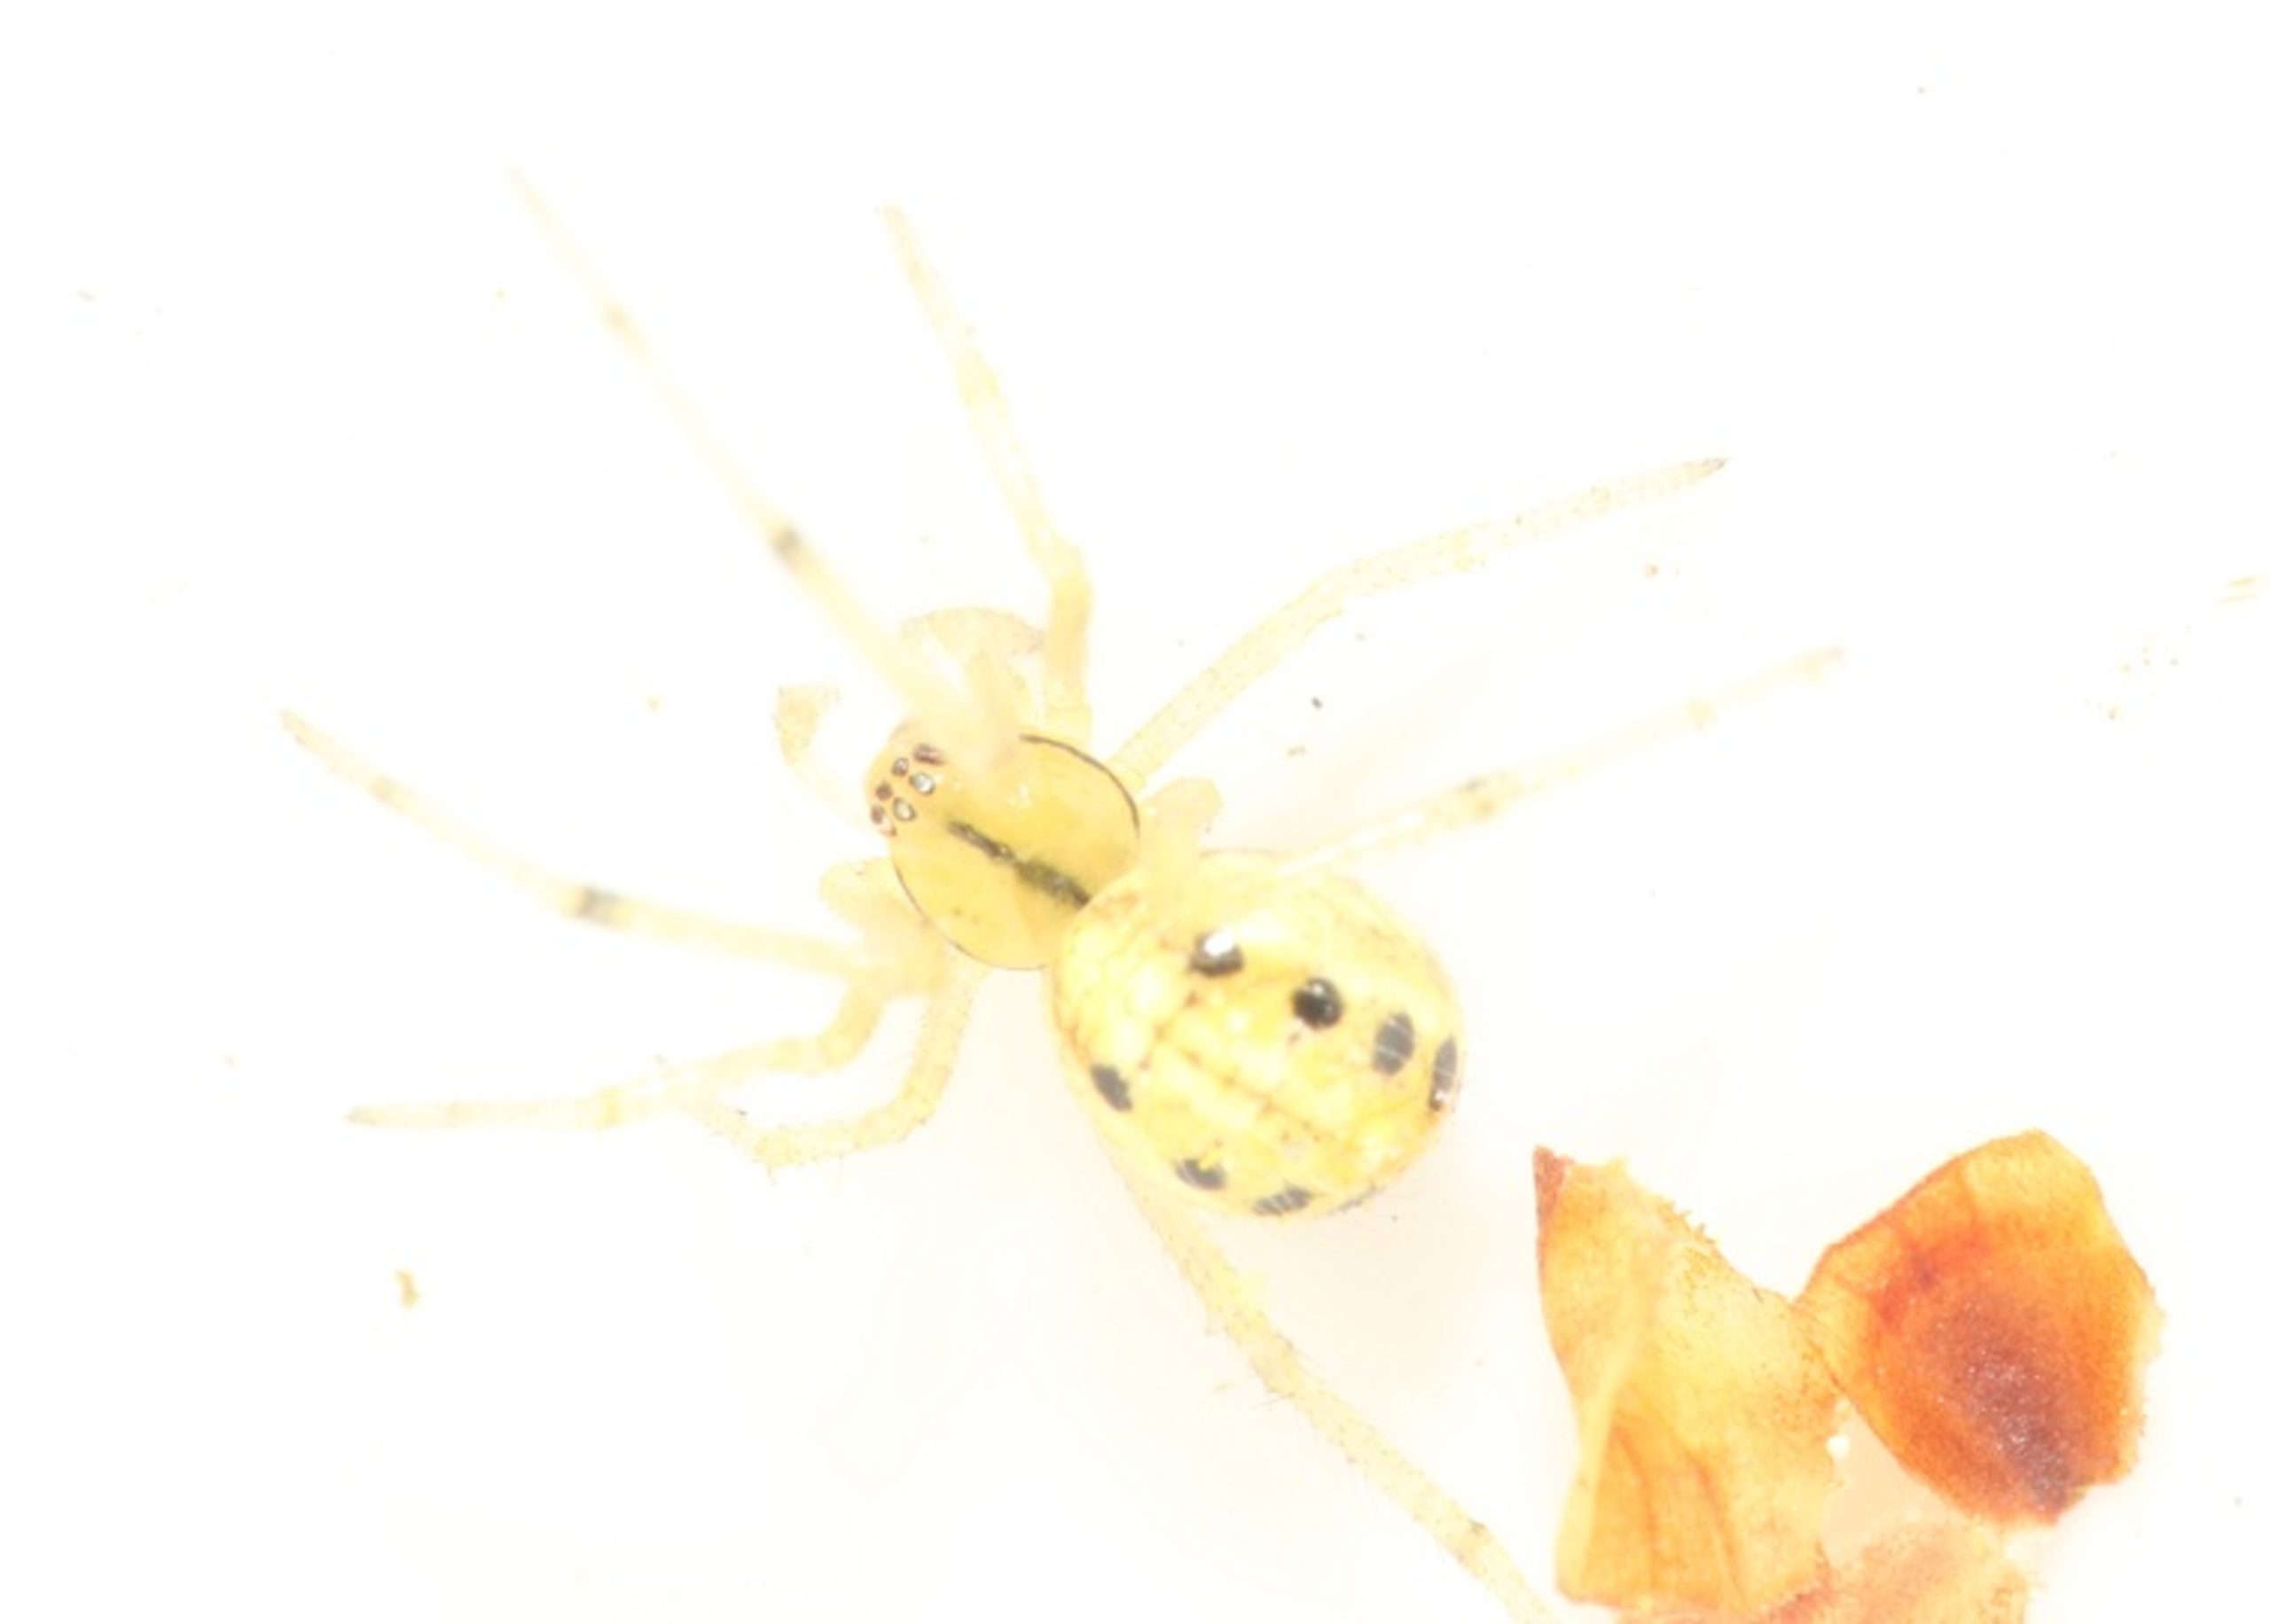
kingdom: Animalia
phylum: Arthropoda
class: Arachnida
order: Araneae
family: Theridiidae
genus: Enoplognatha
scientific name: Enoplognatha
